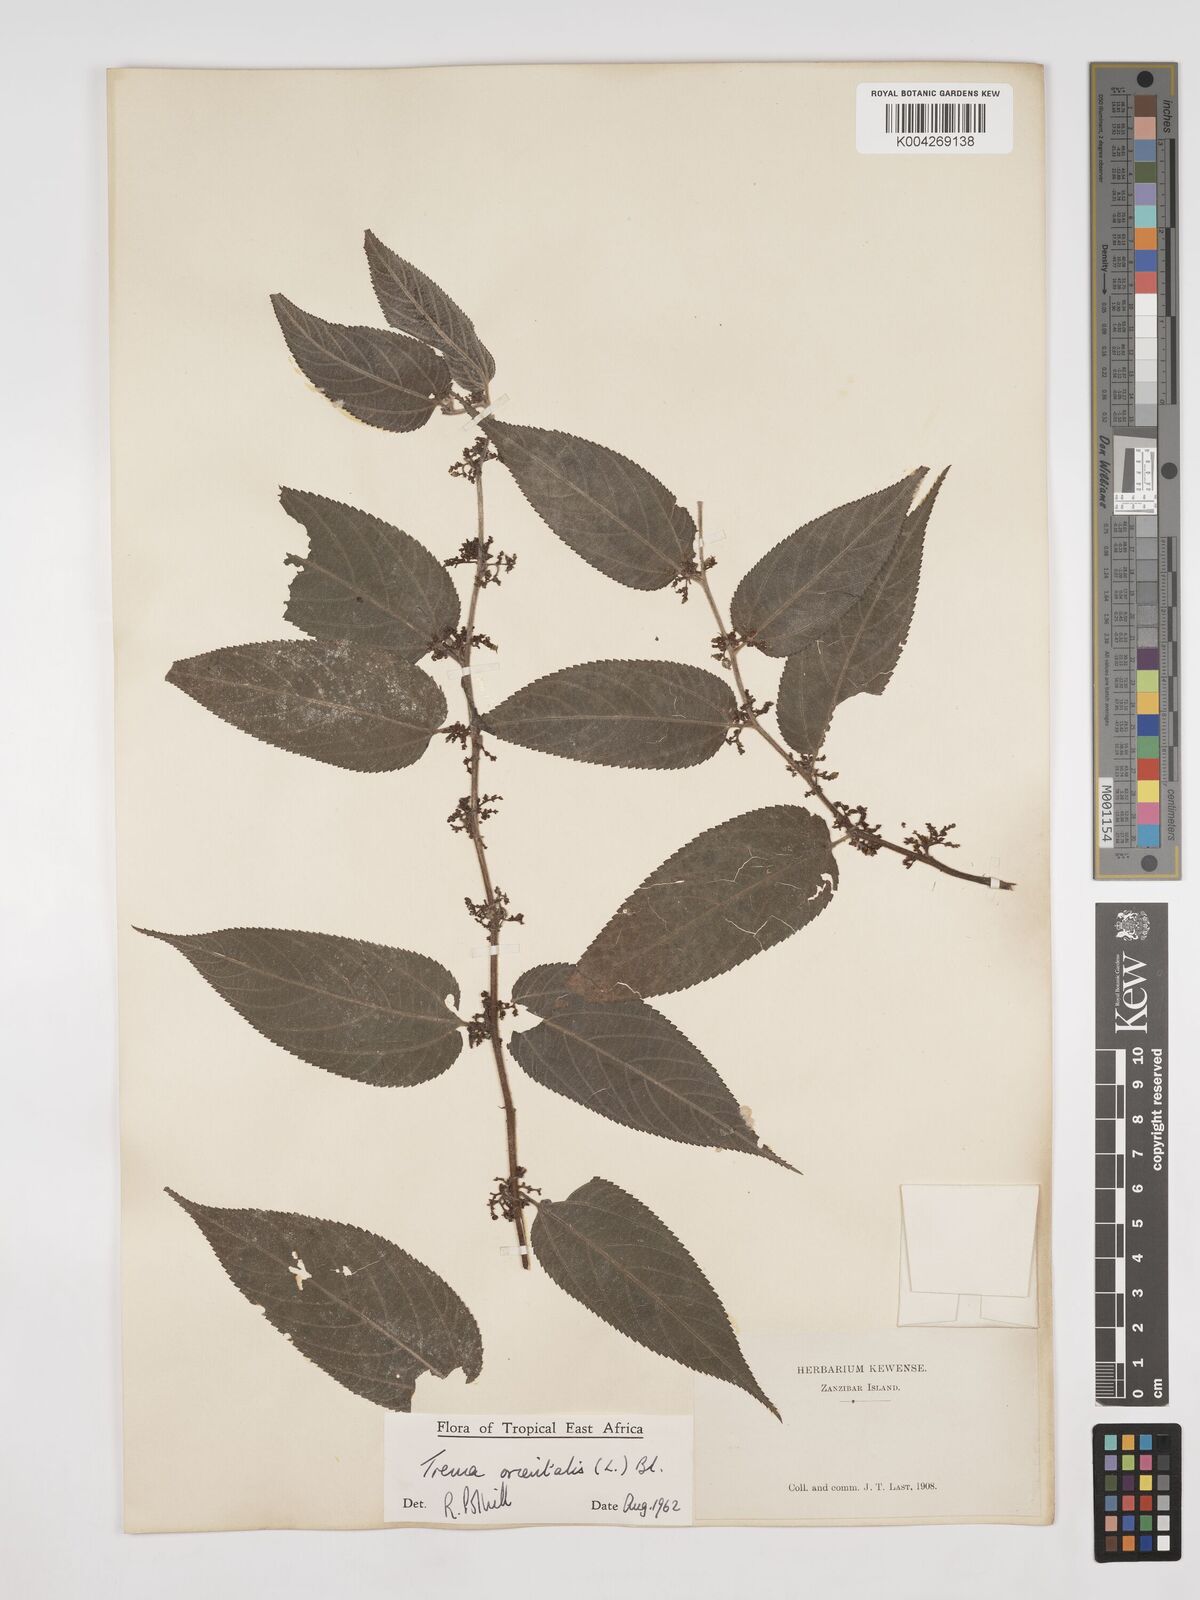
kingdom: Plantae
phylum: Tracheophyta
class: Magnoliopsida
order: Rosales
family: Cannabaceae
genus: Trema
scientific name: Trema orientale
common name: Indian charcoal tree
